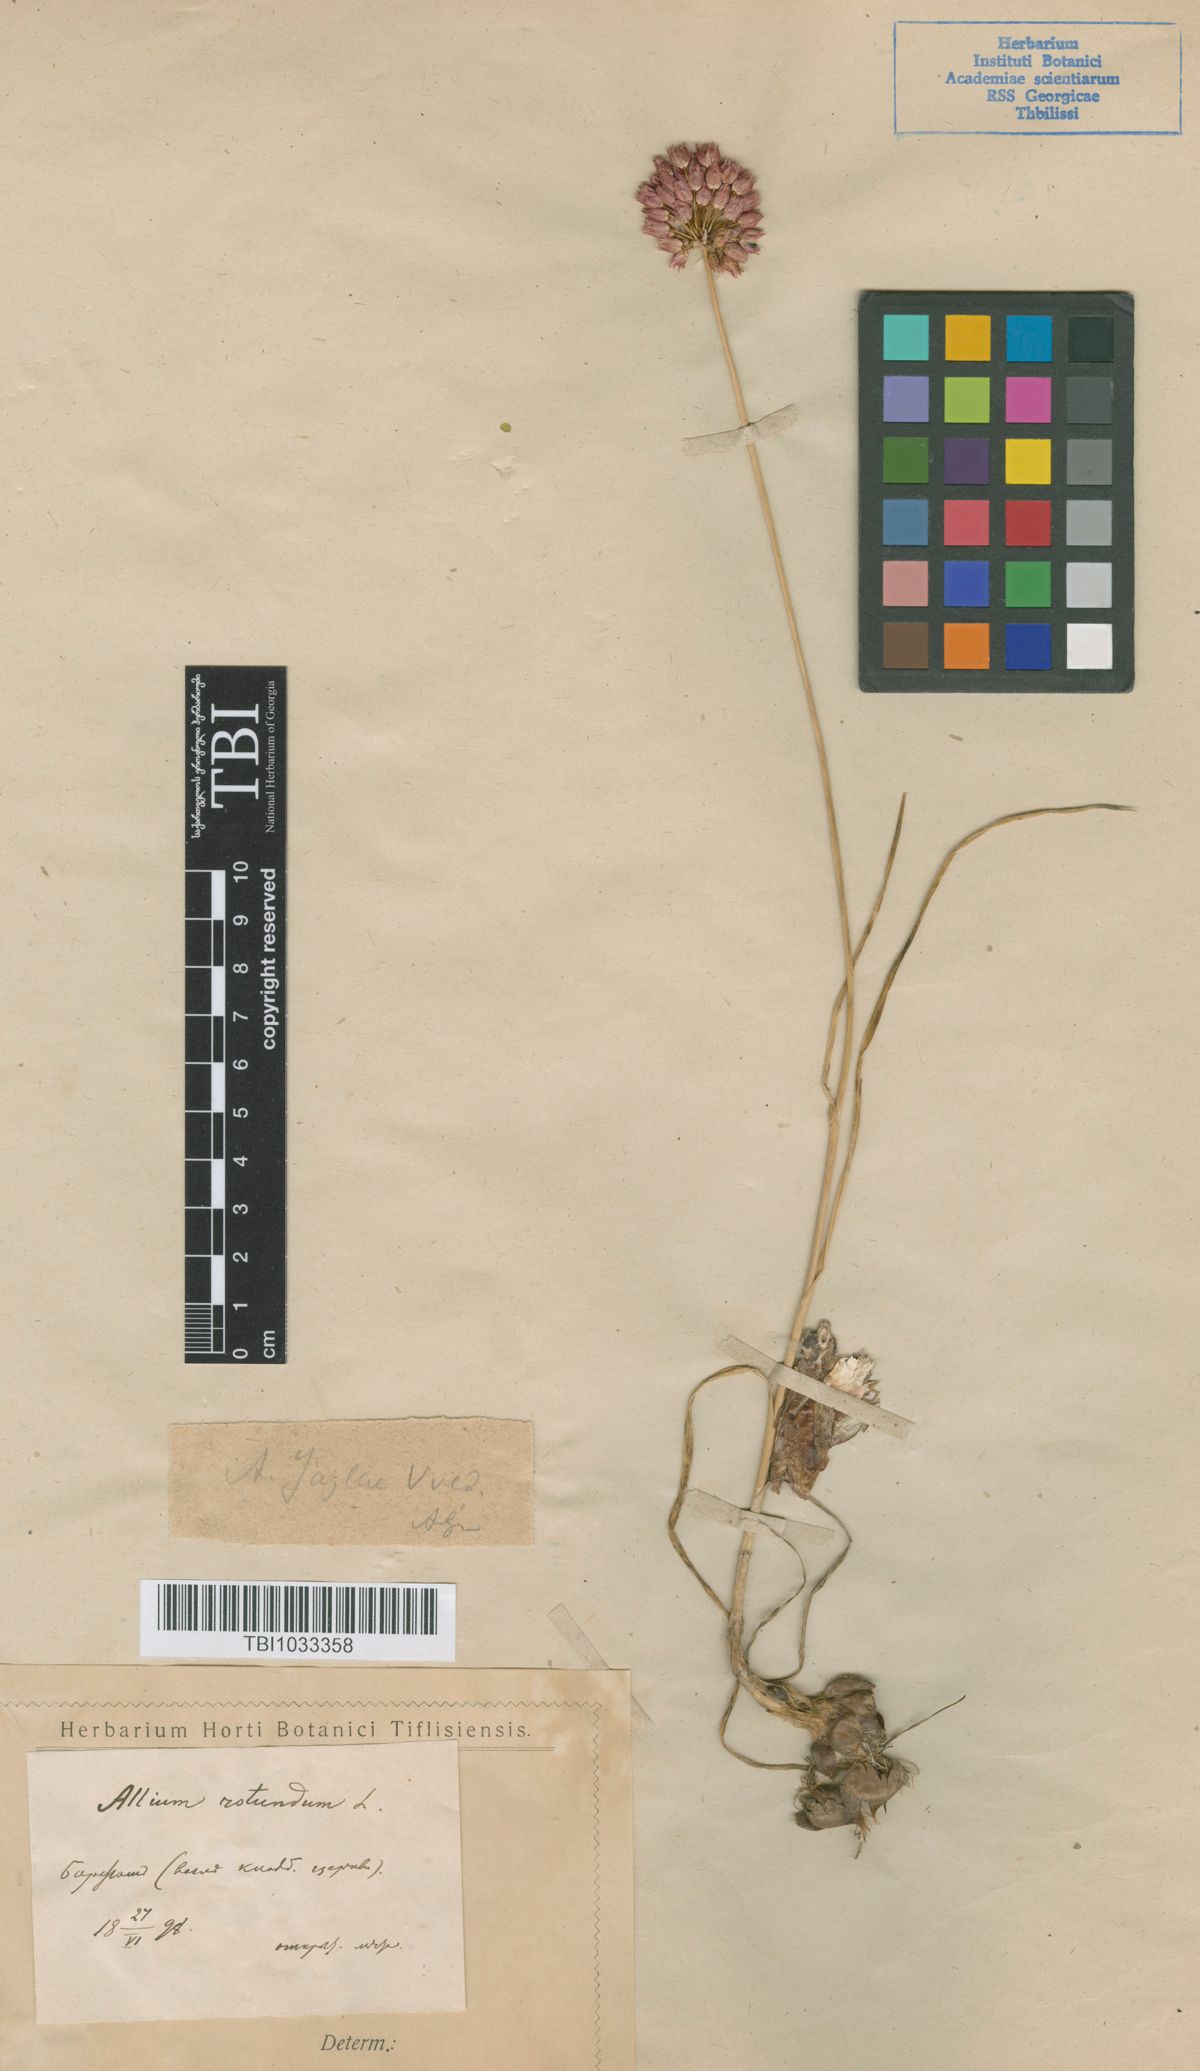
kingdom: Plantae
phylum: Tracheophyta
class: Liliopsida
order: Asparagales
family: Amaryllidaceae
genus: Allium
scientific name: Allium rotundum
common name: Sand leek
